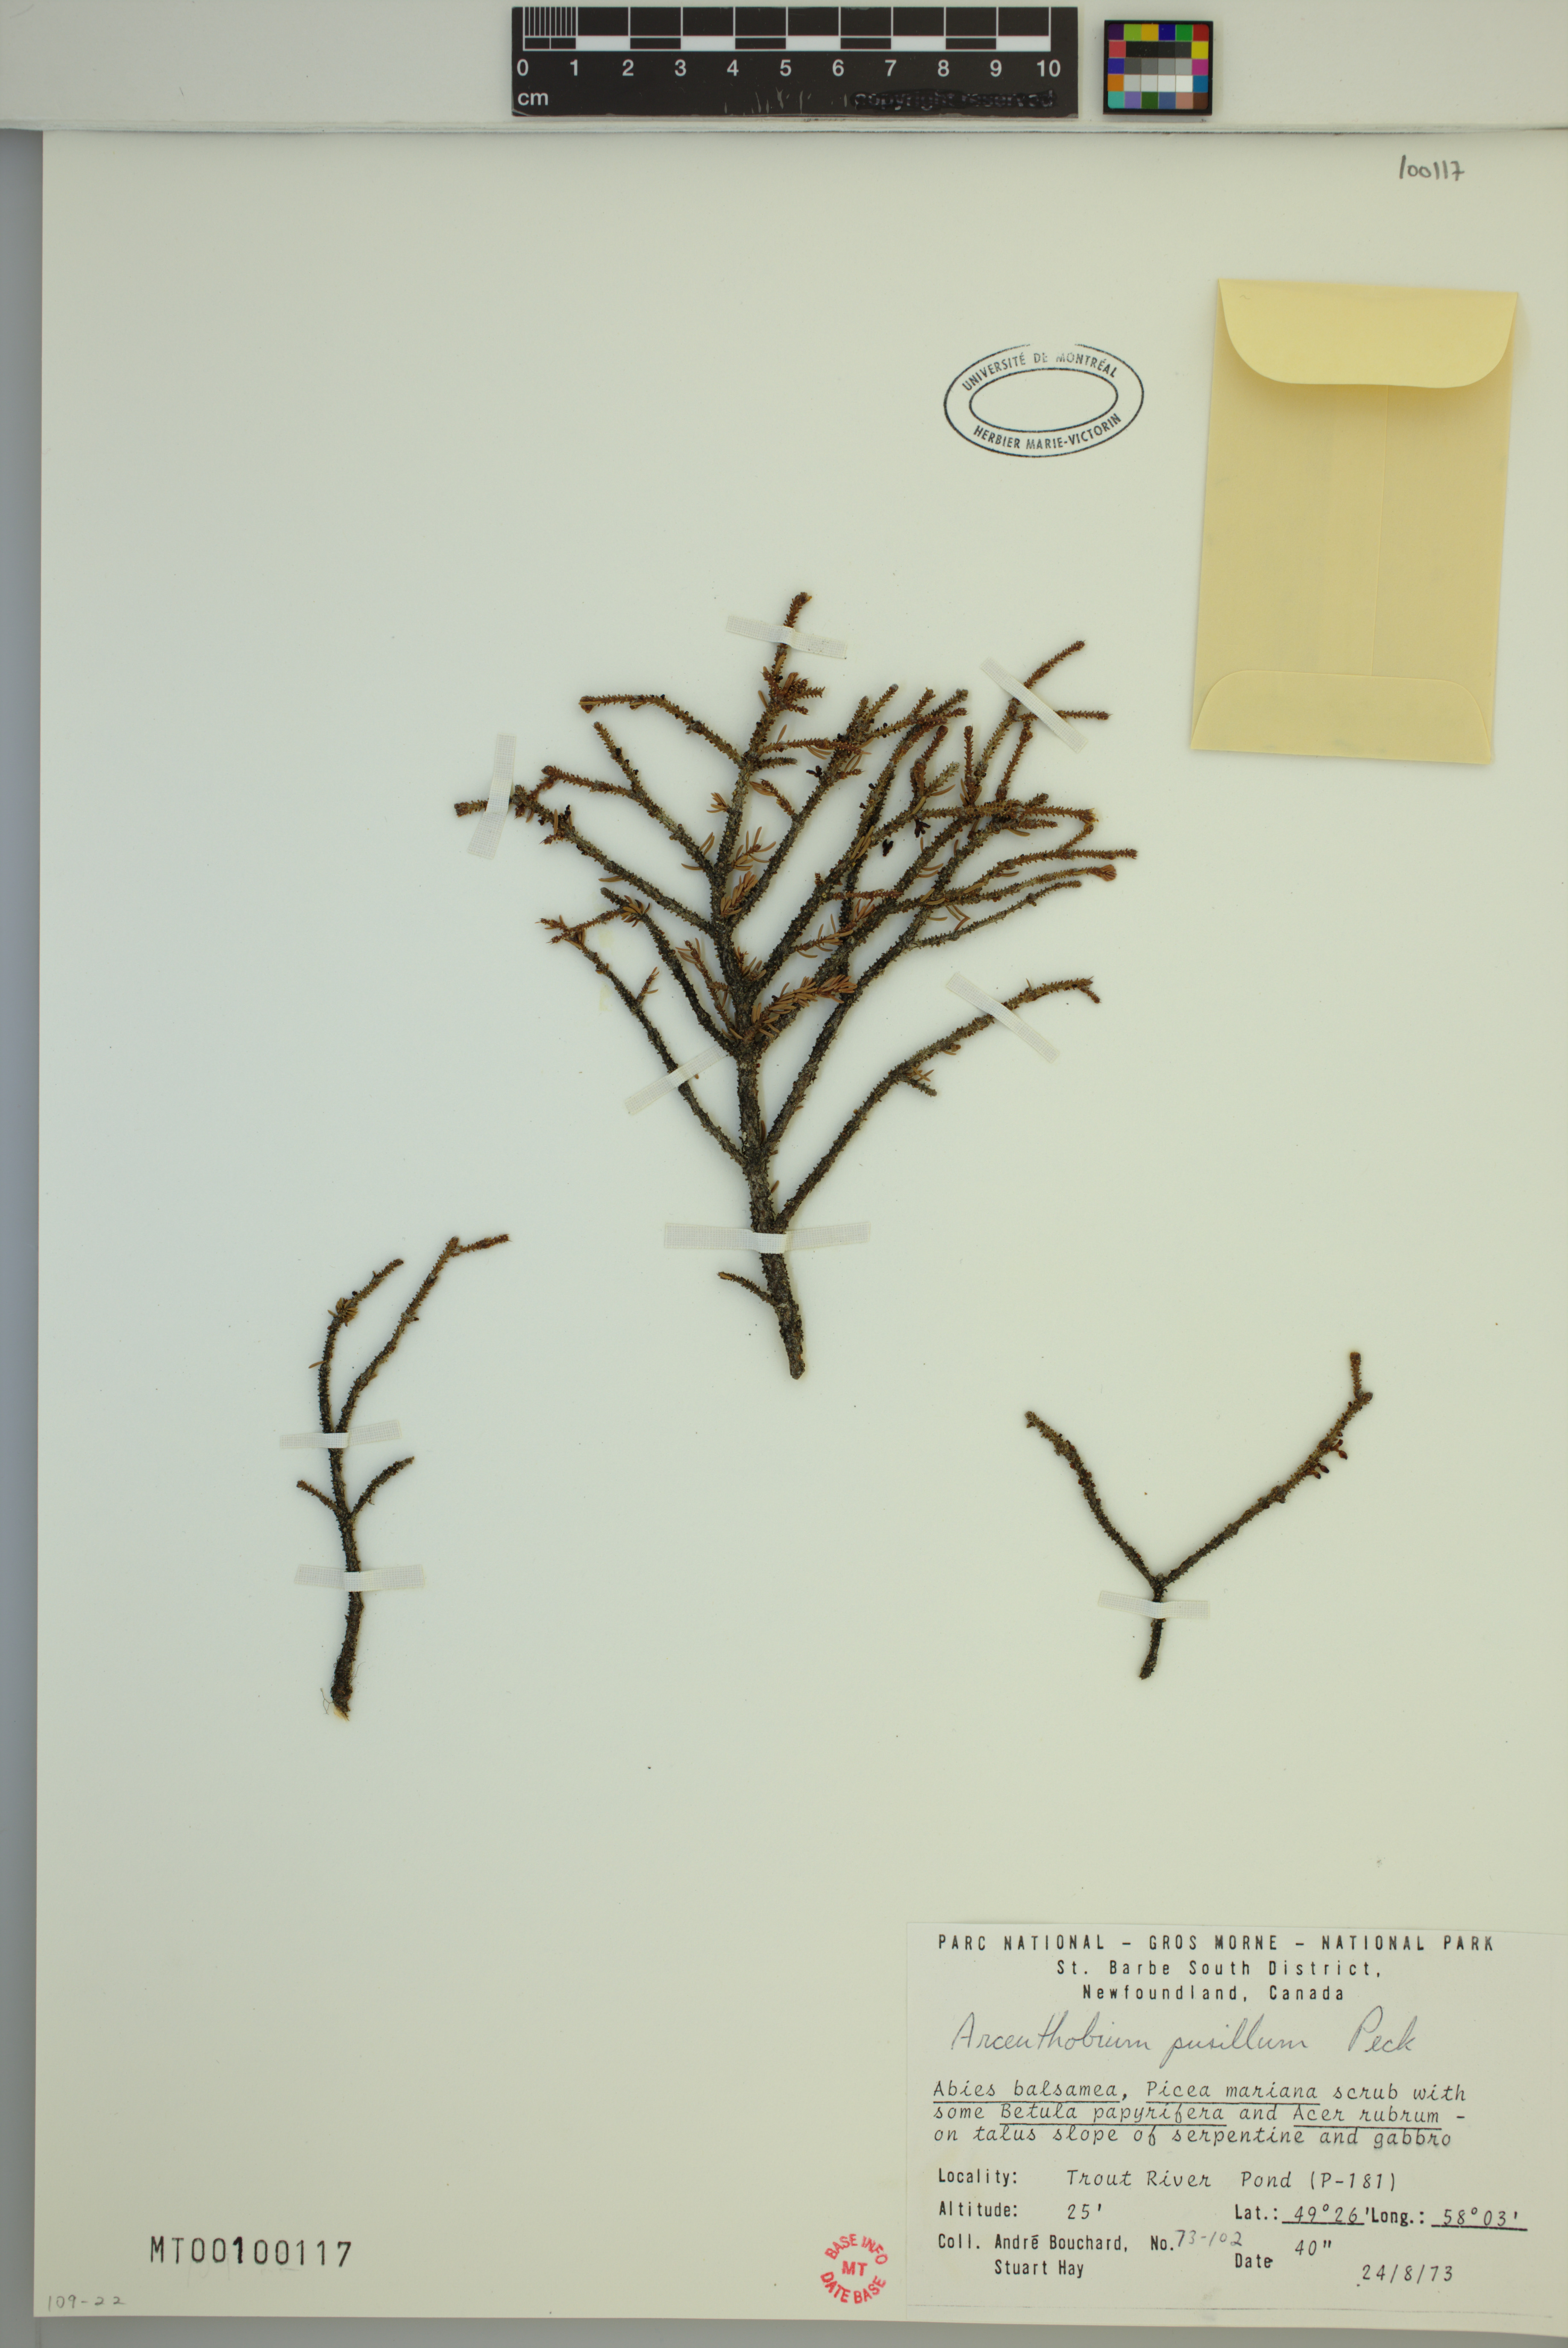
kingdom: Plantae
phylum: Tracheophyta
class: Magnoliopsida
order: Santalales
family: Viscaceae
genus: Arceuthobium
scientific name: Arceuthobium pusillum
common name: Dwarf-mistletoe
